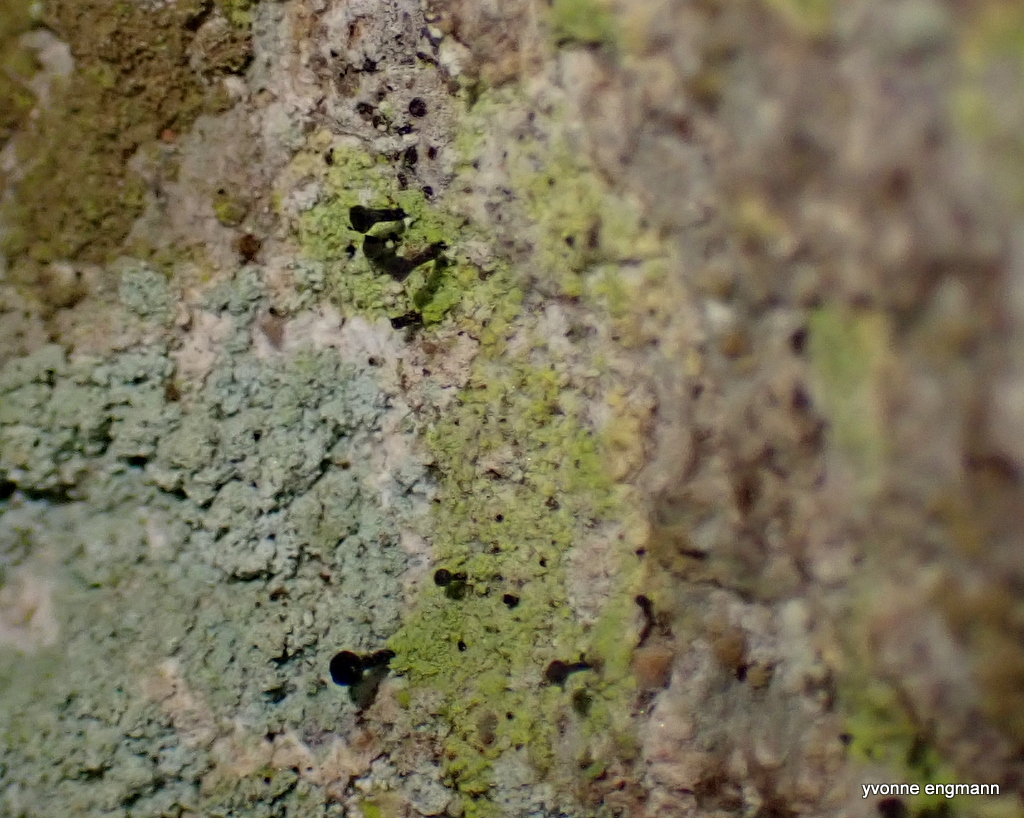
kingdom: Fungi
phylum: Ascomycota
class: Lecanoromycetes
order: Caliciales
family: Caliciaceae
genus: Calicium
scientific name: Calicium viride
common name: gulgrøn nålelav
